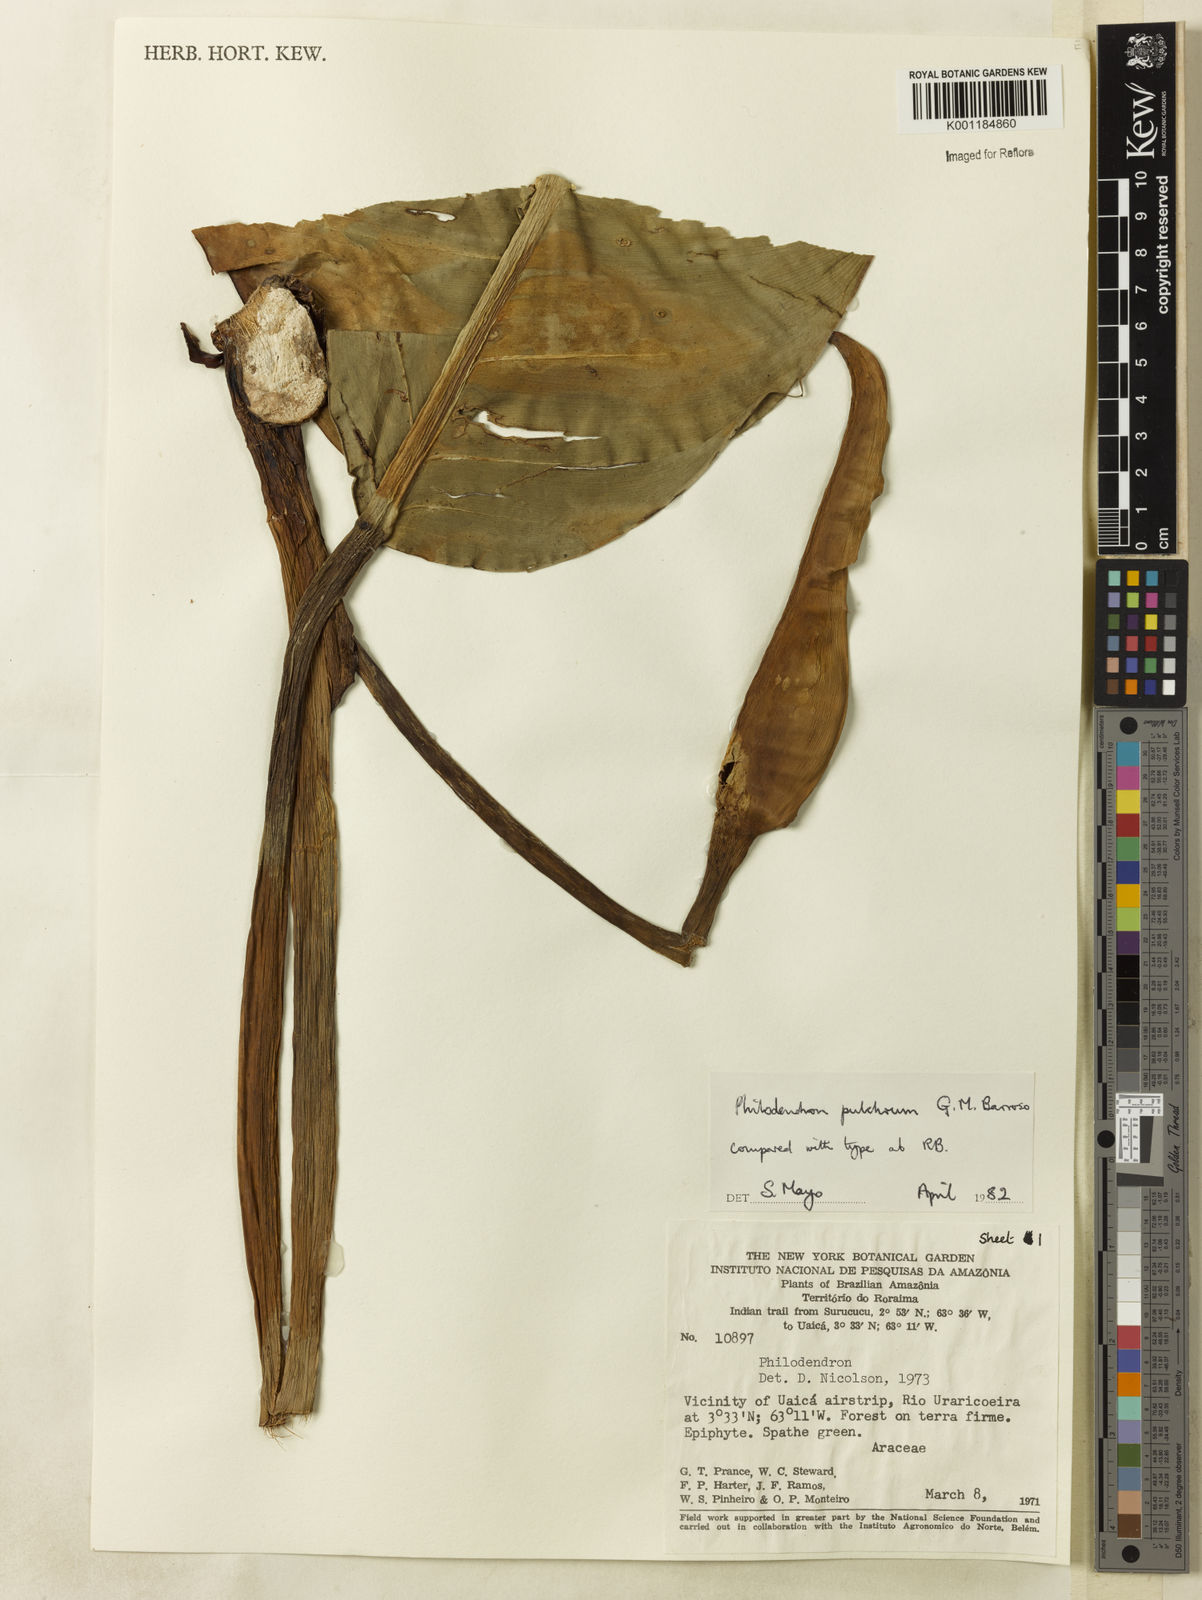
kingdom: Plantae
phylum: Tracheophyta
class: Liliopsida
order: Alismatales
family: Araceae
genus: Philodendron
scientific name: Philodendron pulchrum
